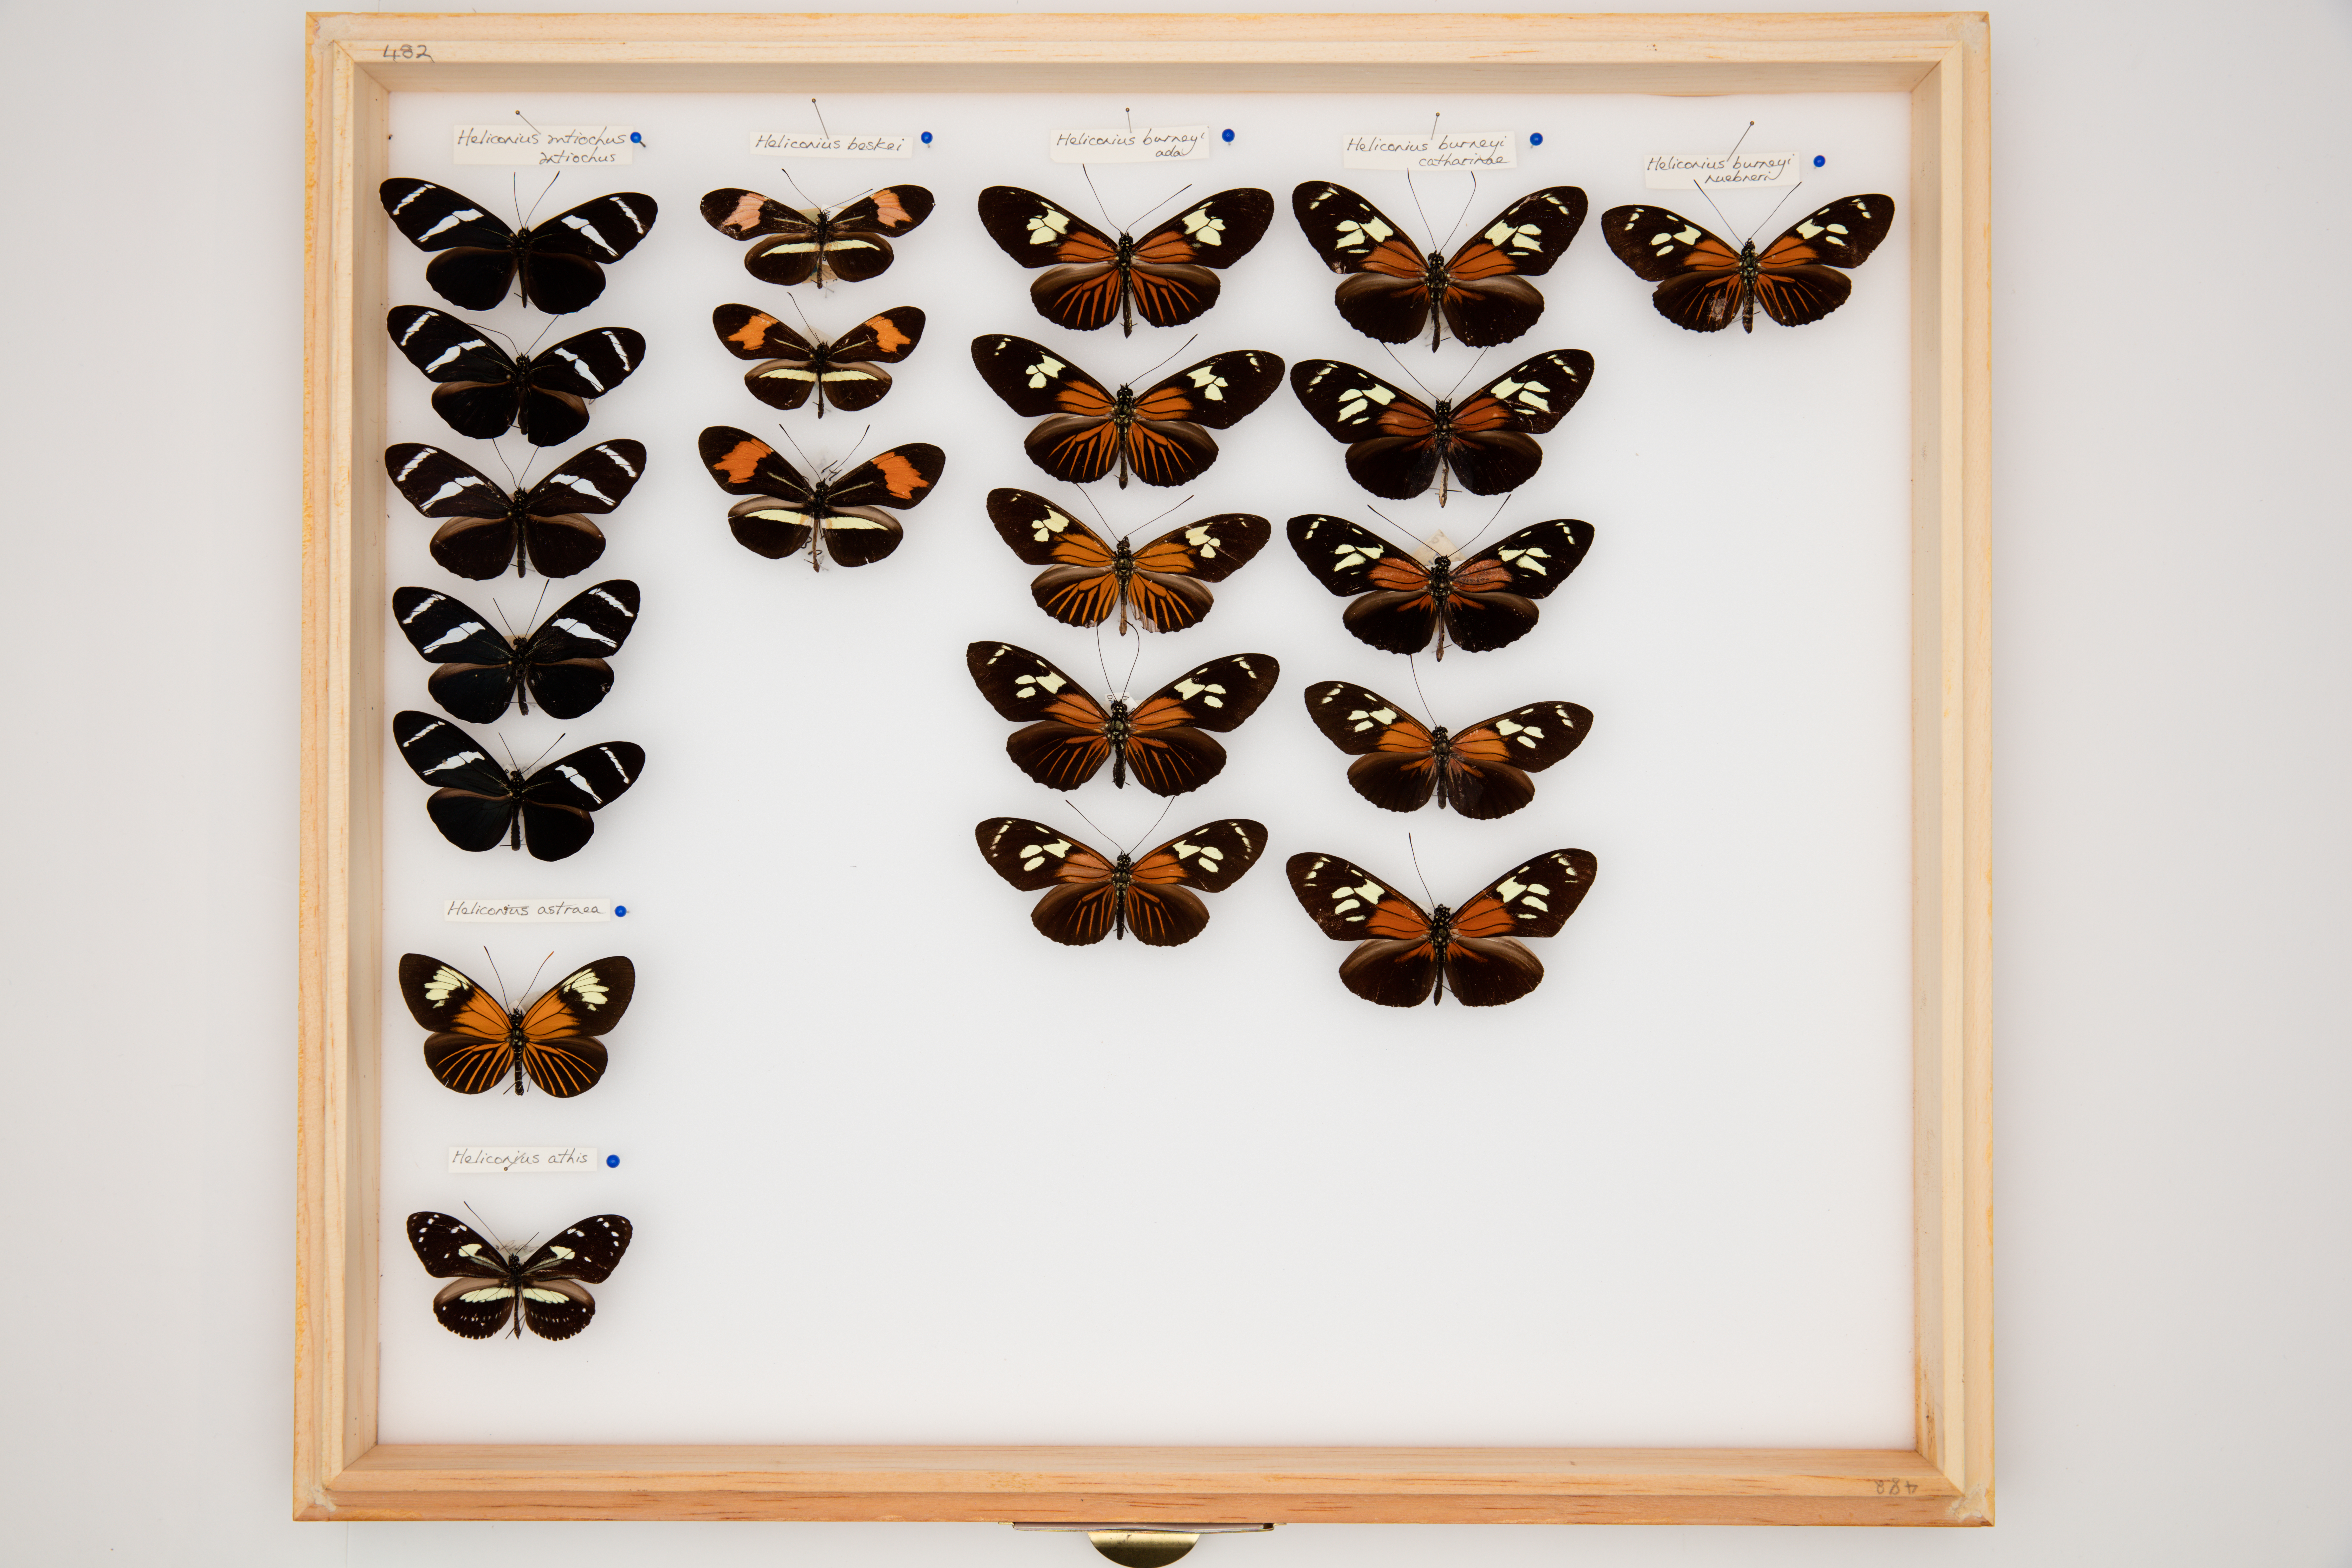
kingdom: Animalia
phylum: Arthropoda
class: Insecta
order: Lepidoptera
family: Nymphalidae
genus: Heliconius
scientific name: Heliconius antiochus
